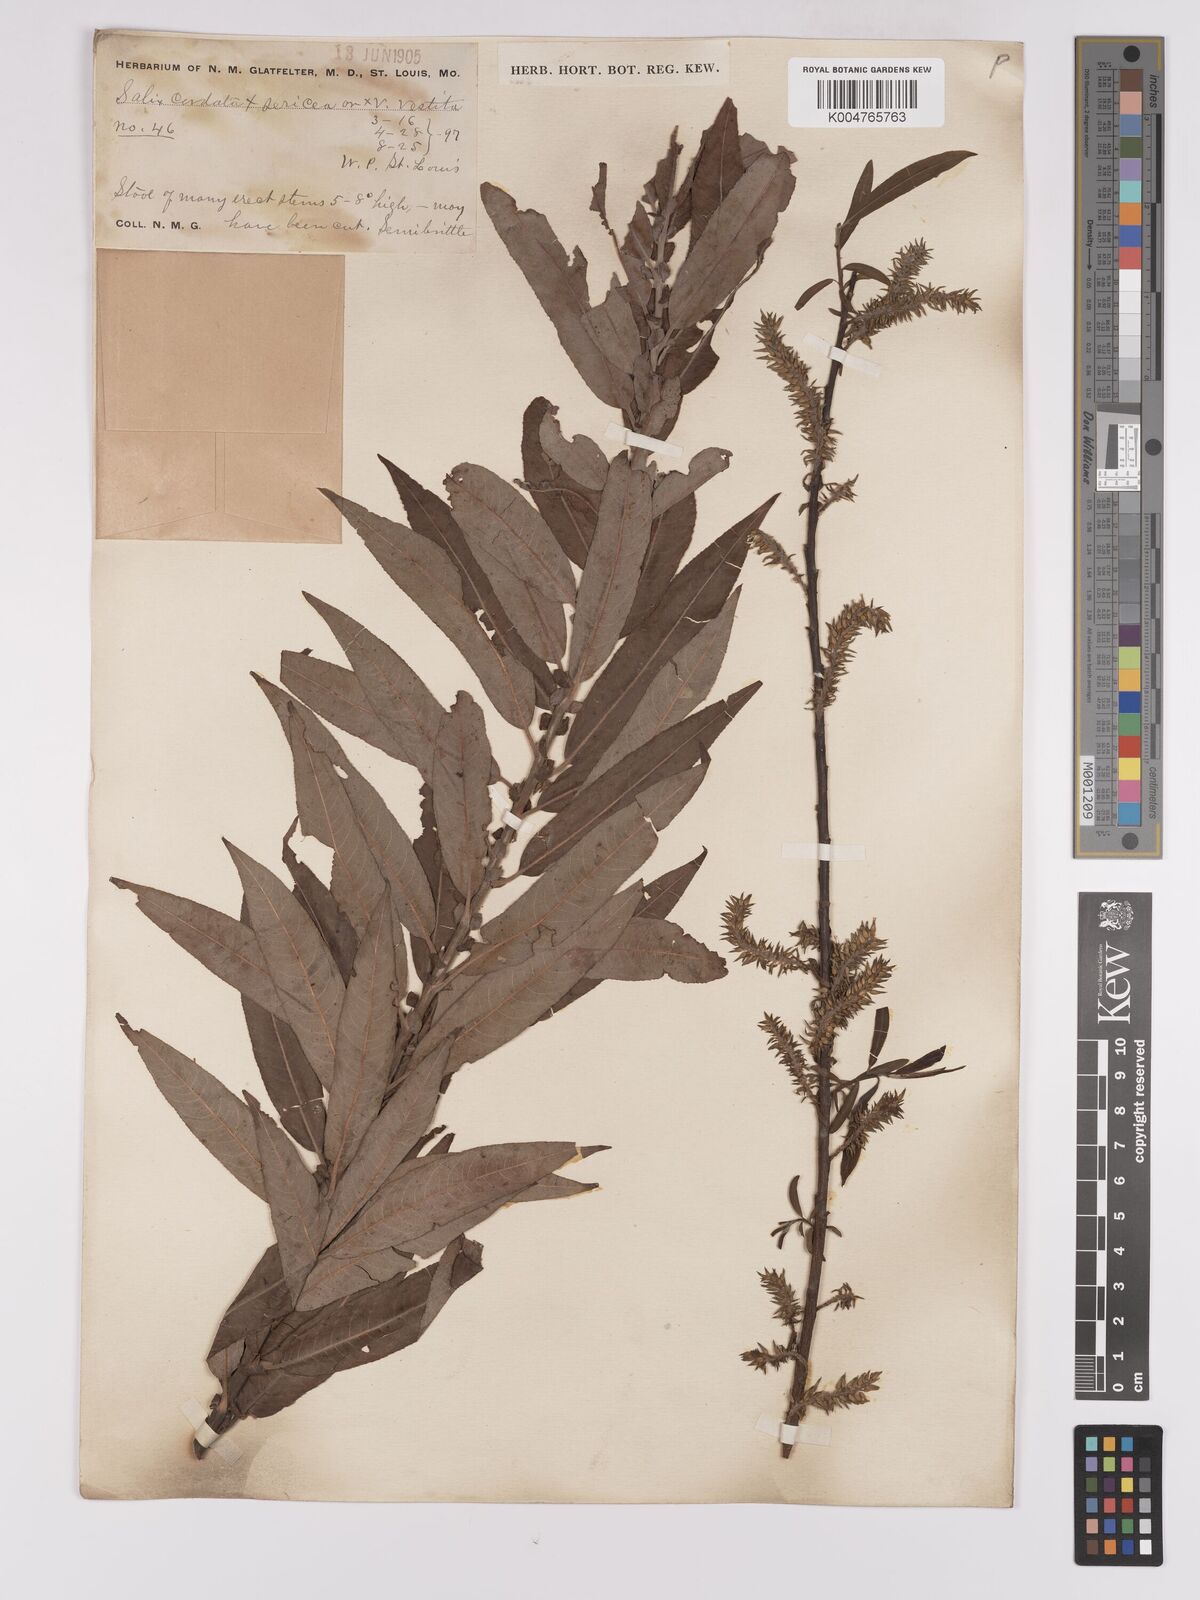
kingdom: Plantae
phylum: Tracheophyta
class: Magnoliopsida
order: Malpighiales
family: Salicaceae
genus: Salix
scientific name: Salix cordata
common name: Heart-leaf willow
